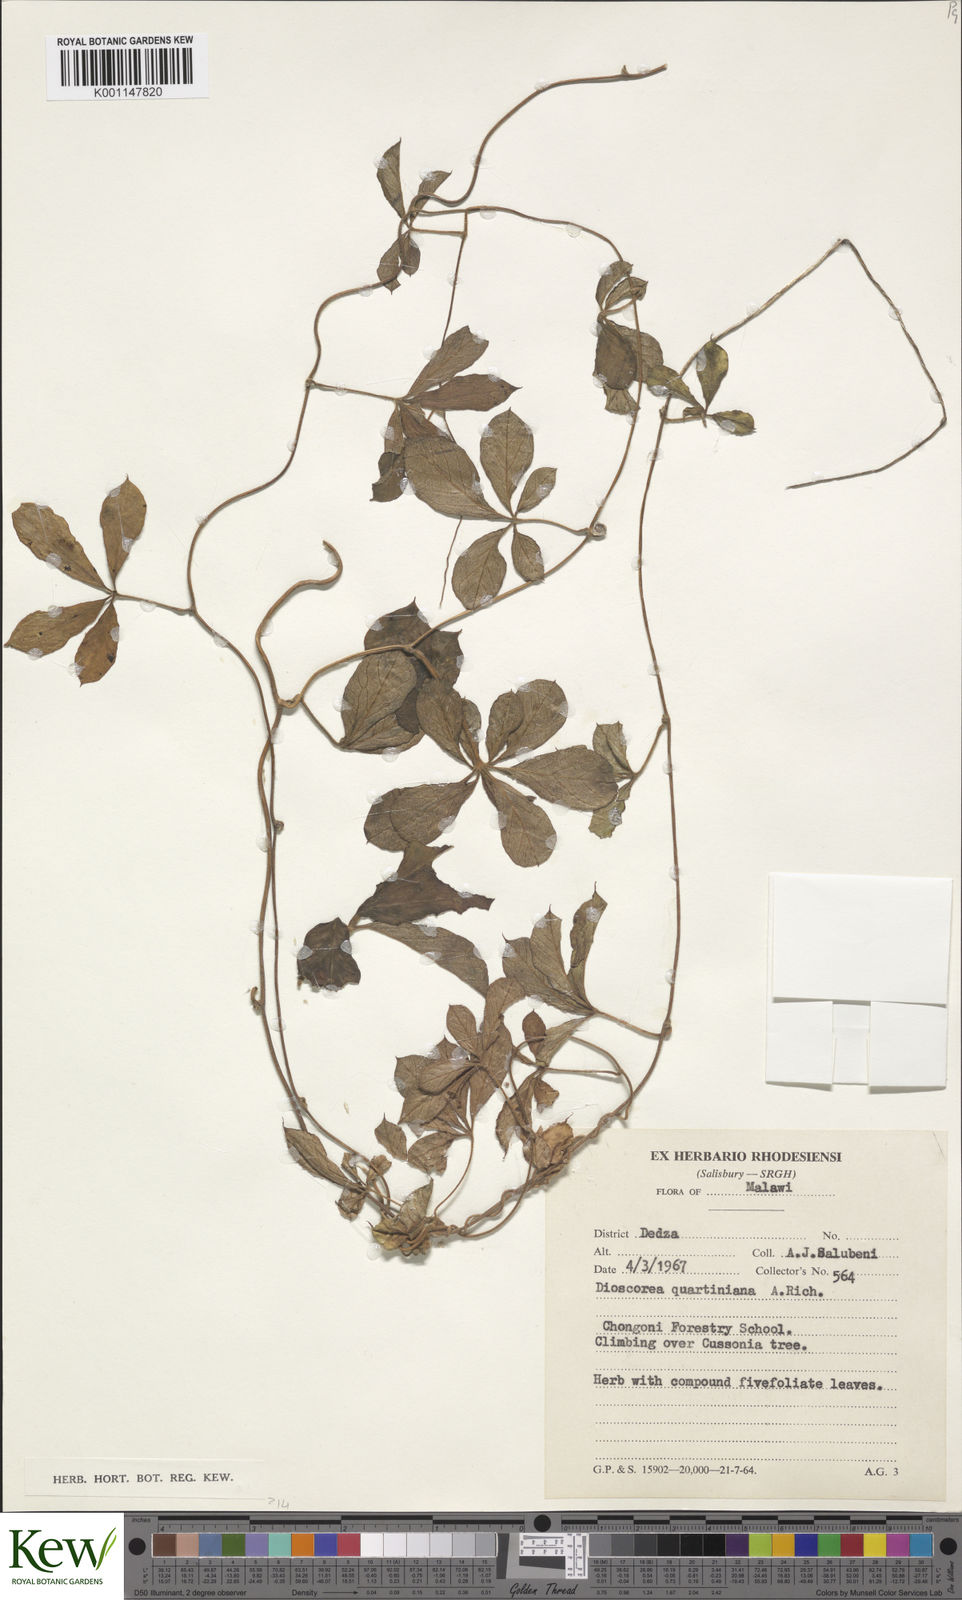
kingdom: Plantae
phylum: Tracheophyta
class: Liliopsida
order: Dioscoreales
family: Dioscoreaceae
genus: Dioscorea
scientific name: Dioscorea quartiniana
